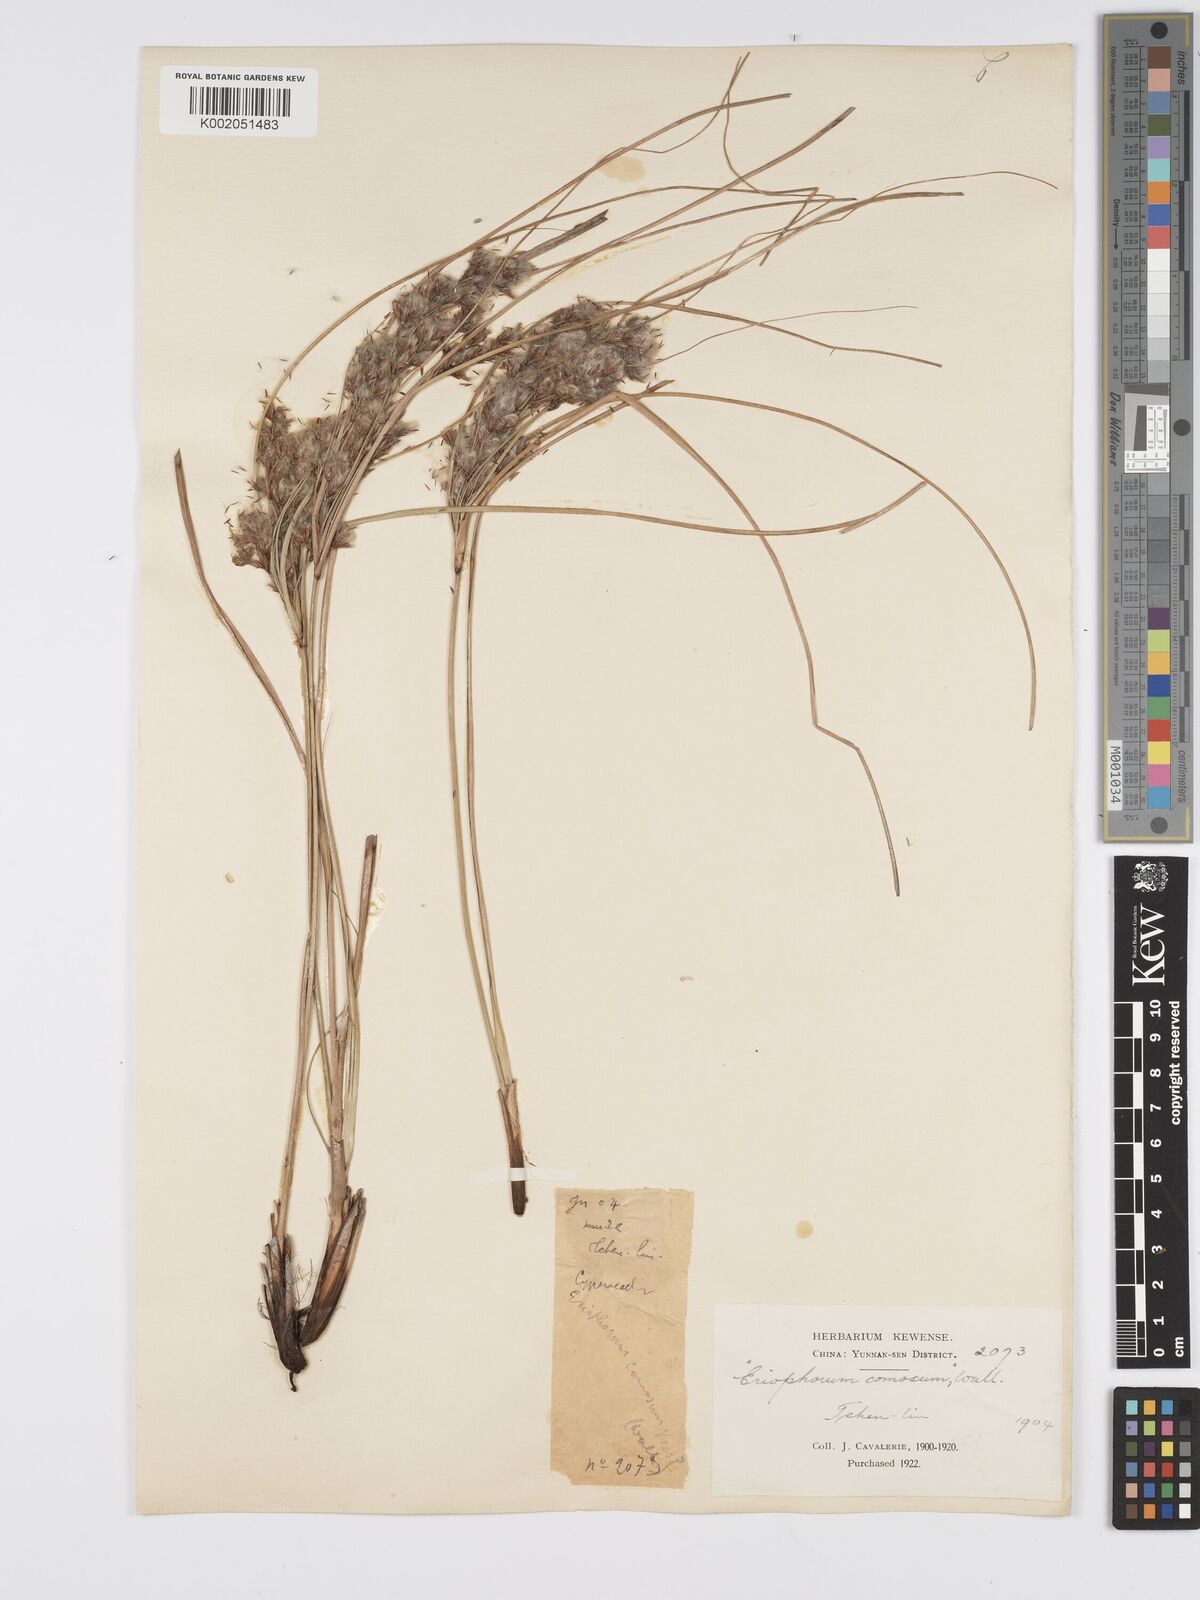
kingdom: Plantae
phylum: Tracheophyta
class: Liliopsida
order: Poales
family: Cyperaceae
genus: Erioscirpus
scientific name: Erioscirpus comosus
